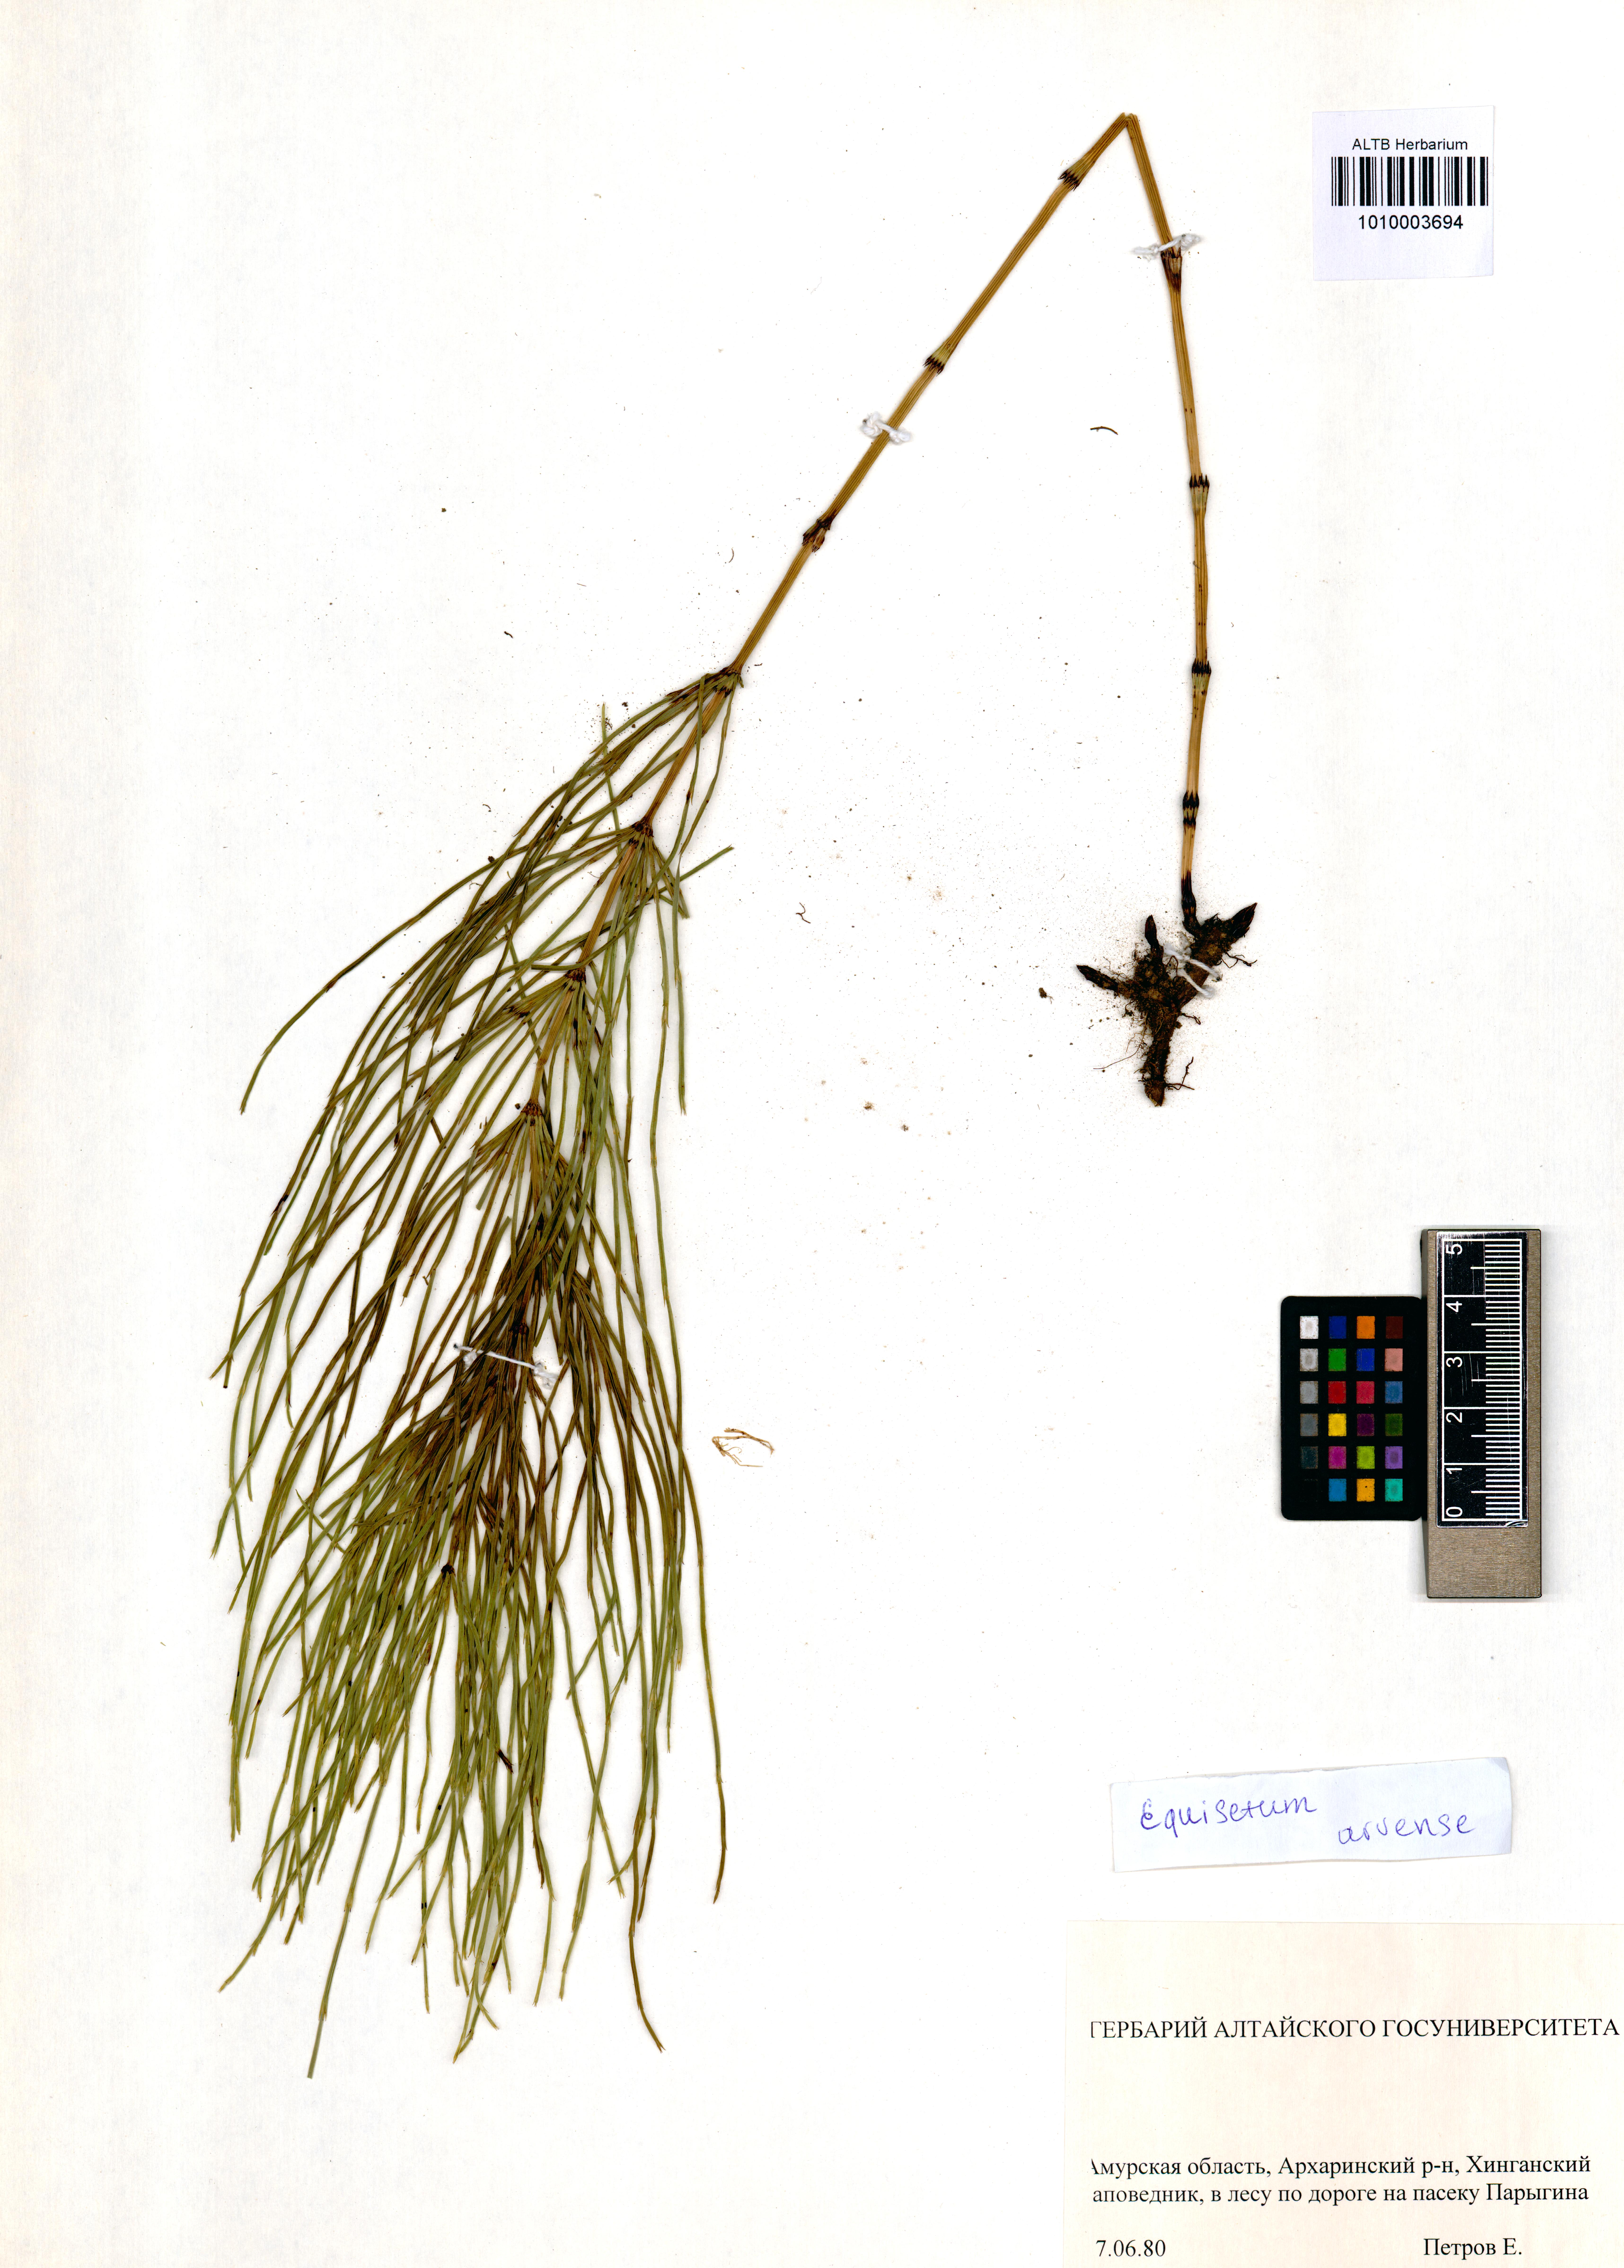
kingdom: Plantae
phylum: Tracheophyta
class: Polypodiopsida
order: Equisetales
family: Equisetaceae
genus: Equisetum
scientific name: Equisetum arvense
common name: Field horsetail
